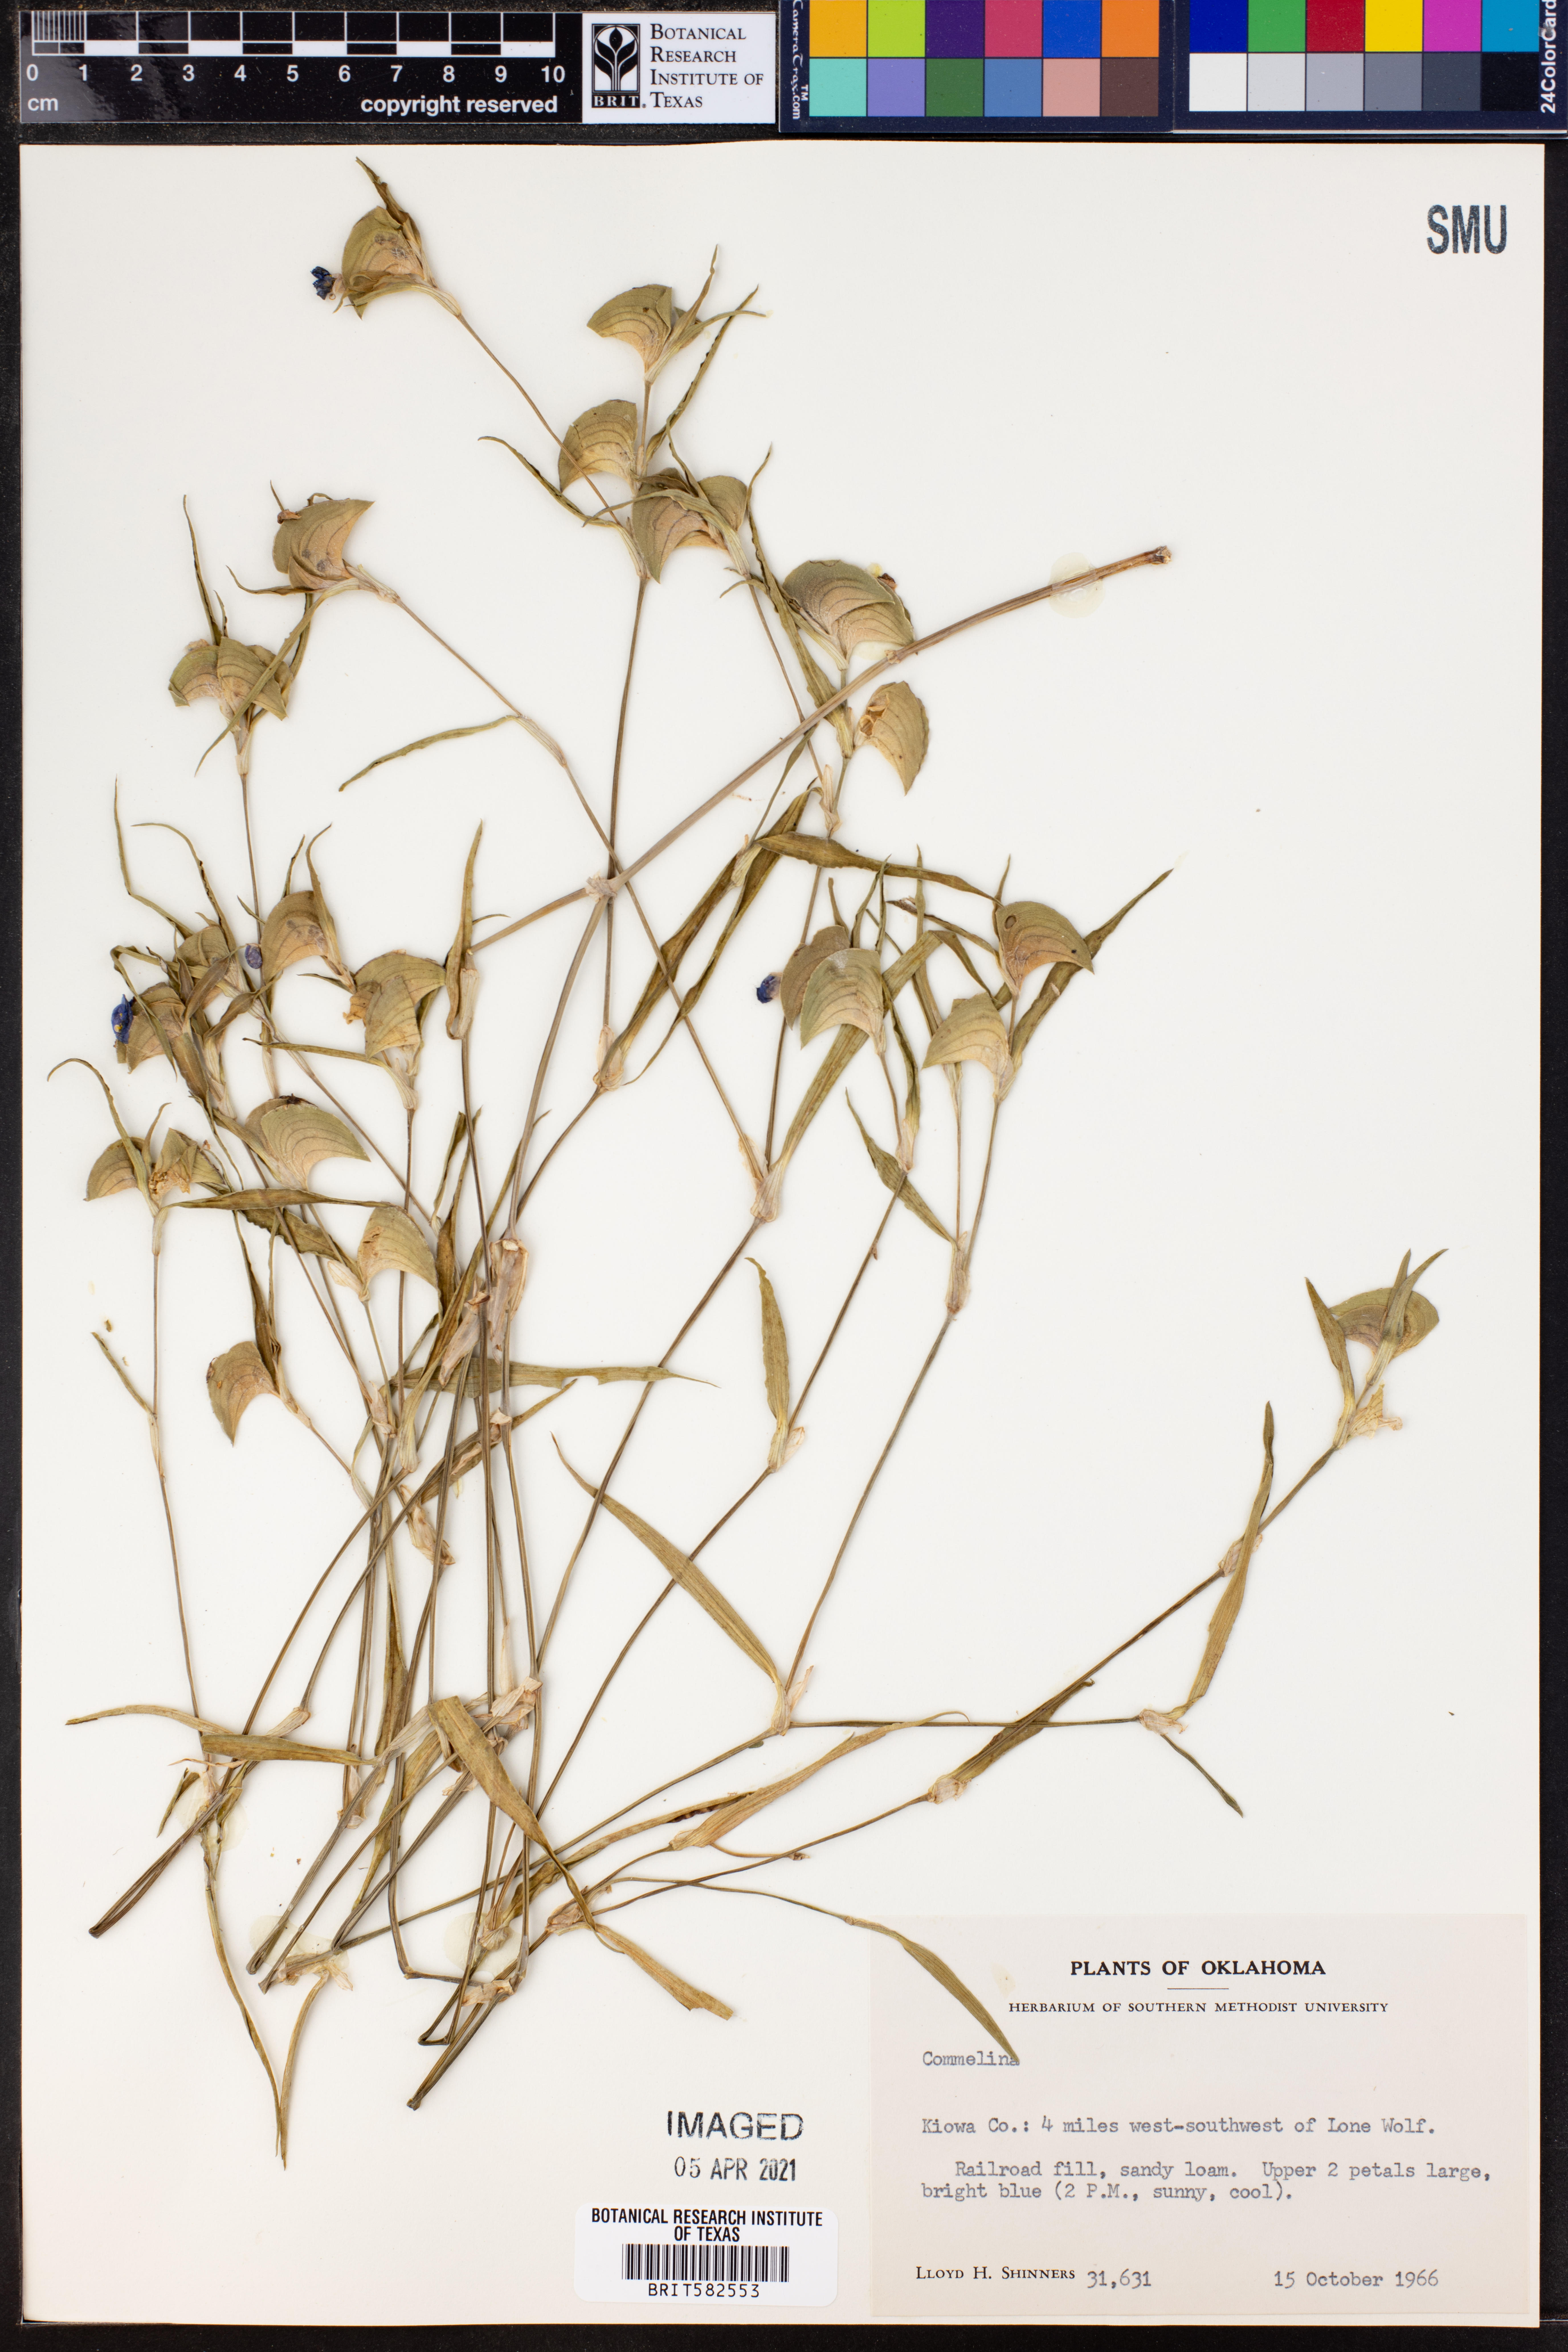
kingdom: Plantae
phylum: Tracheophyta
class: Liliopsida
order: Commelinales
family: Commelinaceae
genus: Commelina
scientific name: Commelina
